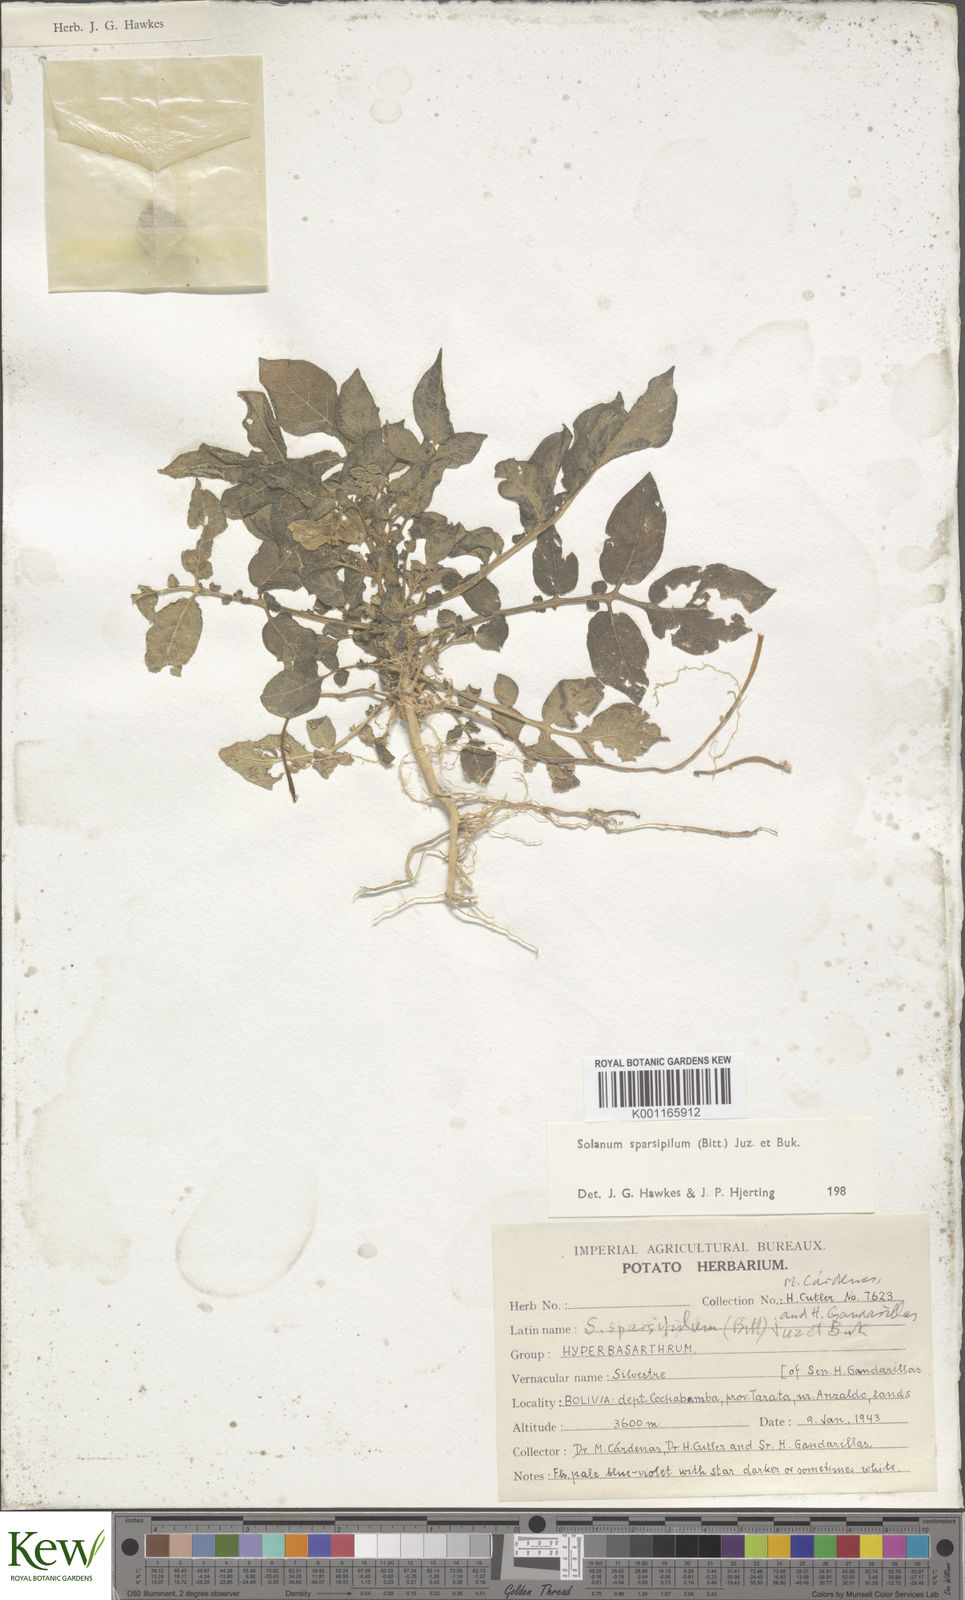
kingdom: Plantae
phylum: Tracheophyta
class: Magnoliopsida
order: Solanales
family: Solanaceae
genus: Solanum
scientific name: Solanum brevicaule
